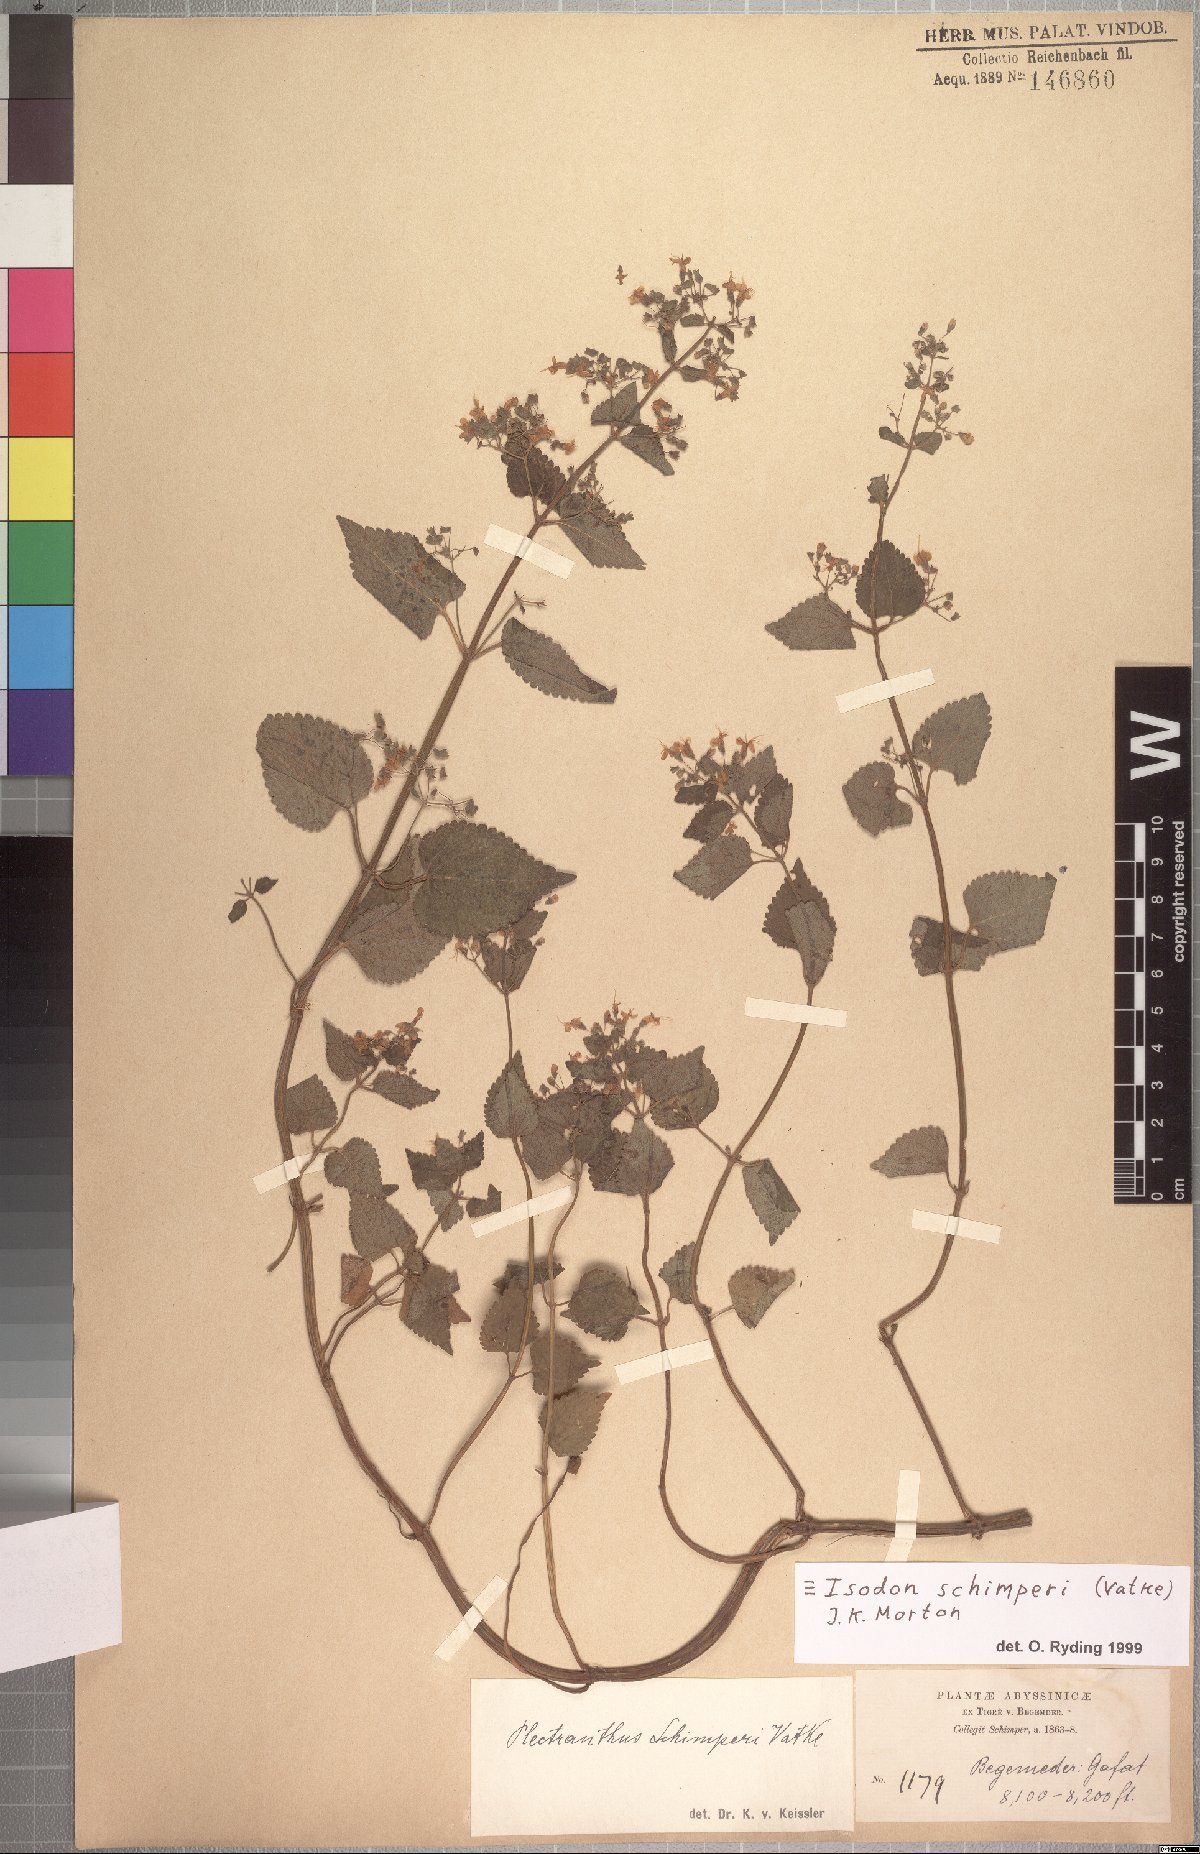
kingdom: Plantae
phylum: Tracheophyta
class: Magnoliopsida
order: Lamiales
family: Lamiaceae
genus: Isodon
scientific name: Isodon schimperi
